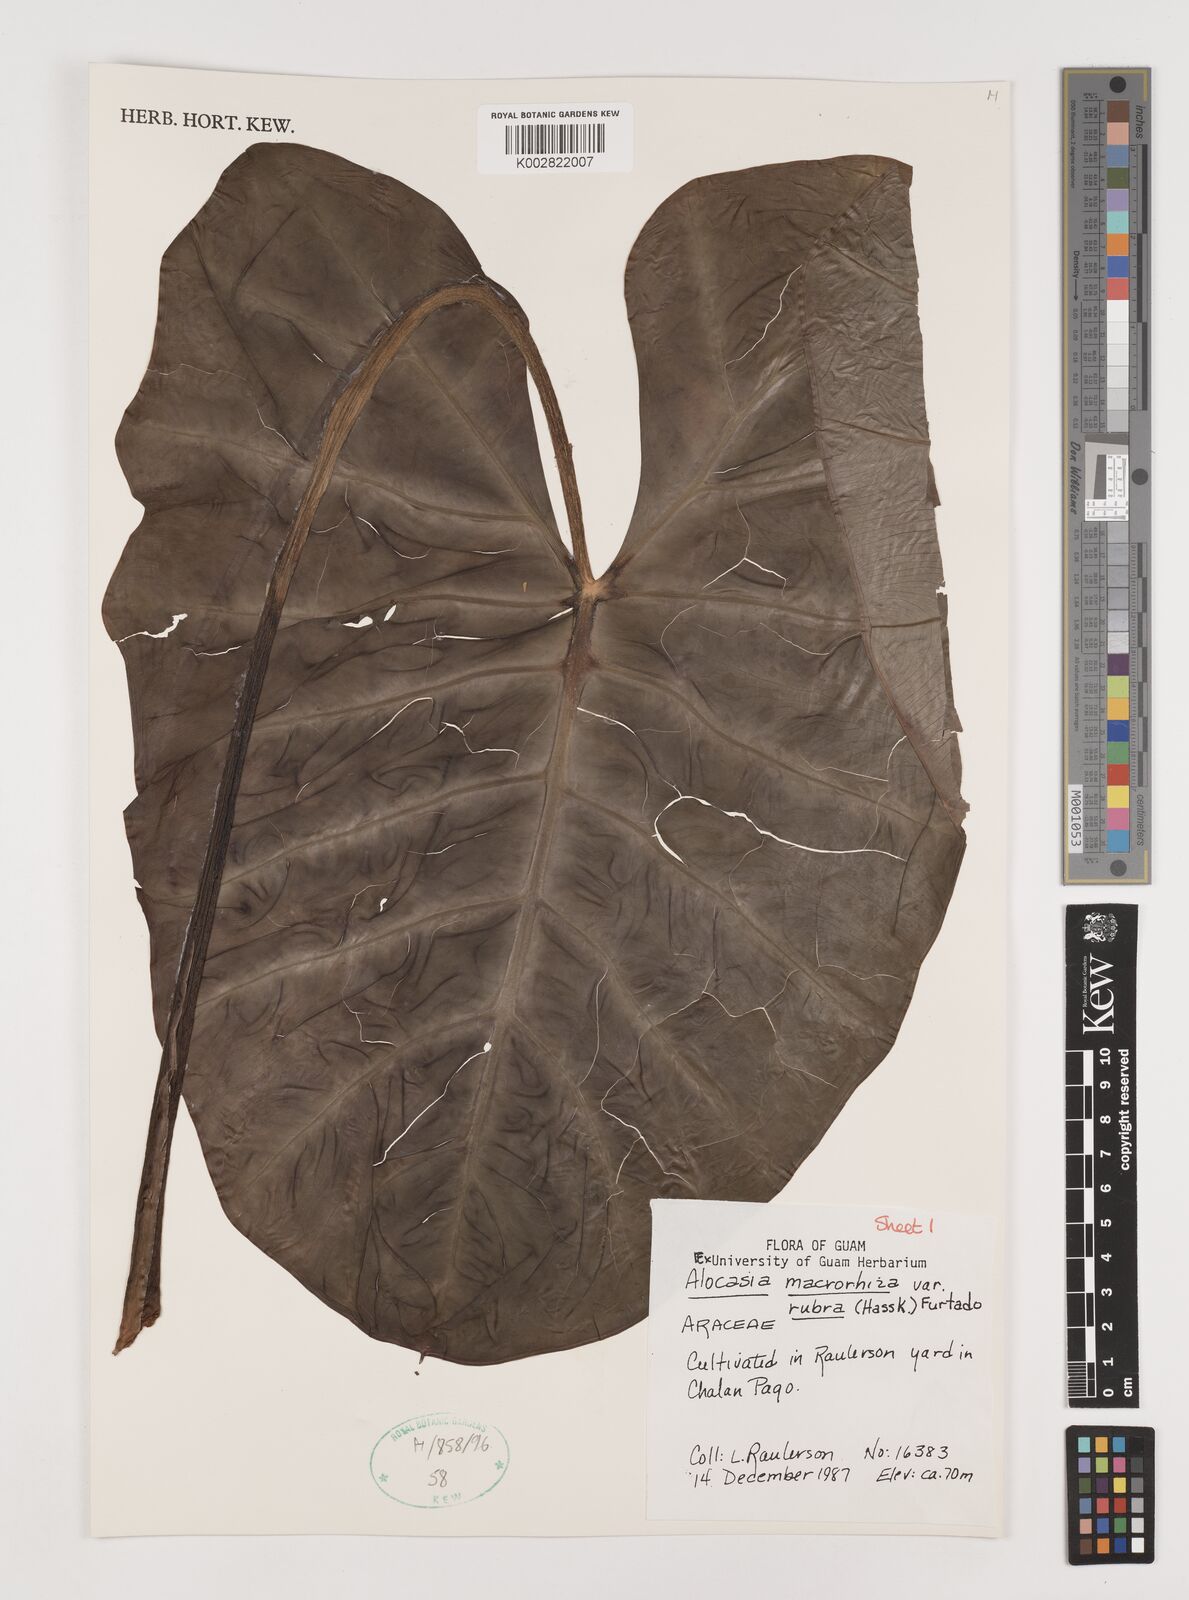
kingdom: Plantae
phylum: Tracheophyta
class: Liliopsida
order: Alismatales
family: Araceae
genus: Alocasia
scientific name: Alocasia macrorrhizos
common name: Giant taro
